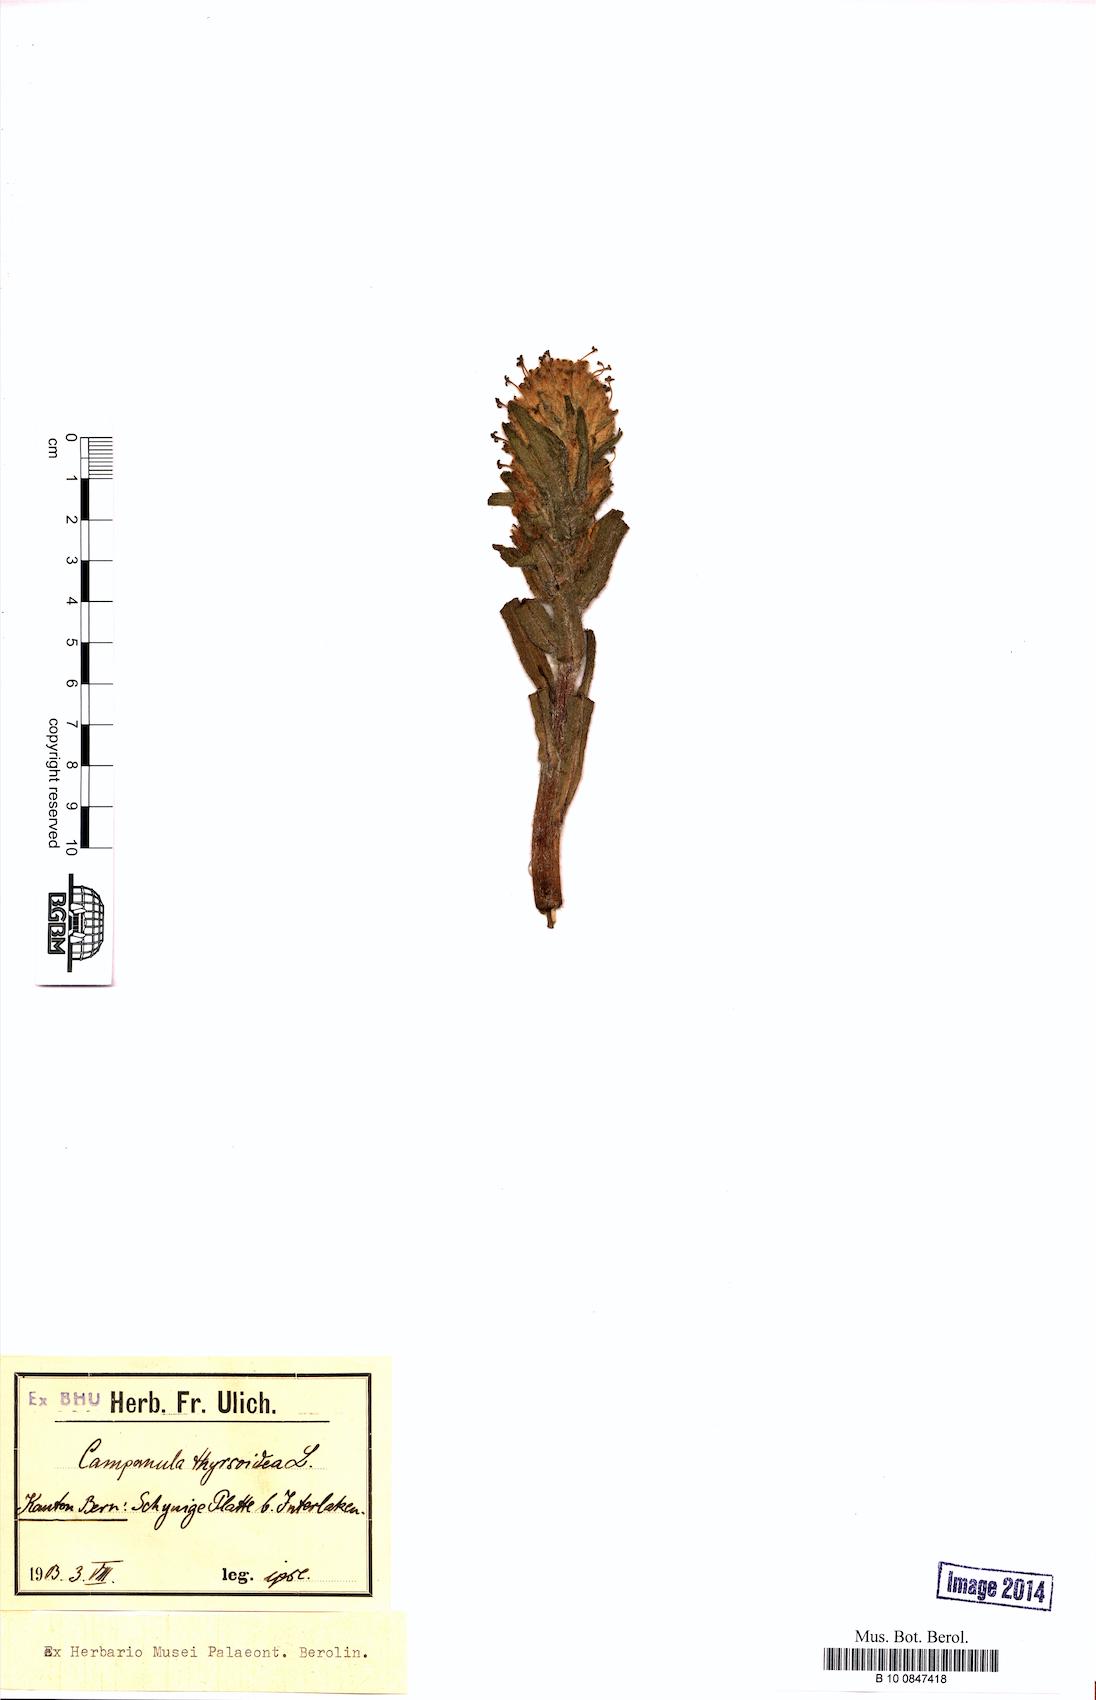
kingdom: Plantae
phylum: Tracheophyta
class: Magnoliopsida
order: Asterales
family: Campanulaceae
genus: Campanula
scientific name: Campanula thyrsoides
